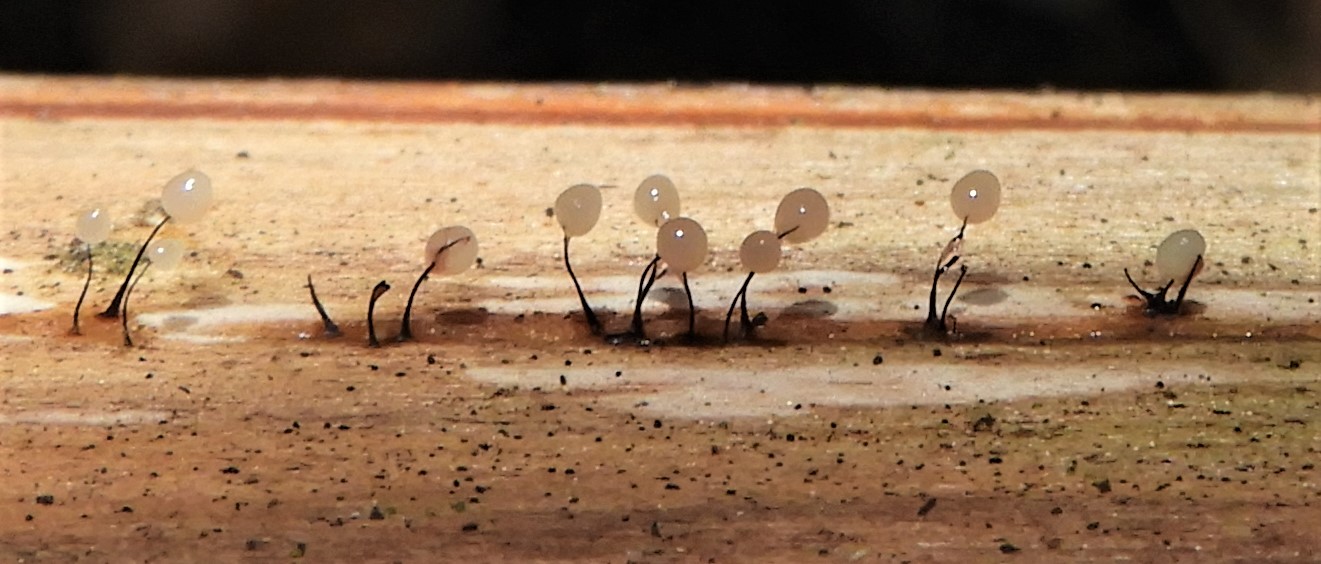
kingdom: Protozoa
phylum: Mycetozoa
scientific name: Mycetozoa
